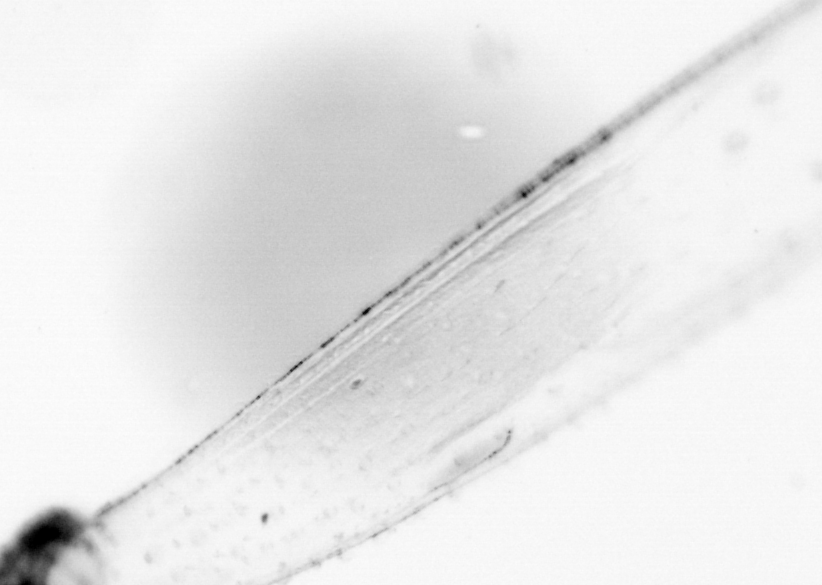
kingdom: Animalia
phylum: Chaetognatha
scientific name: Chaetognatha
